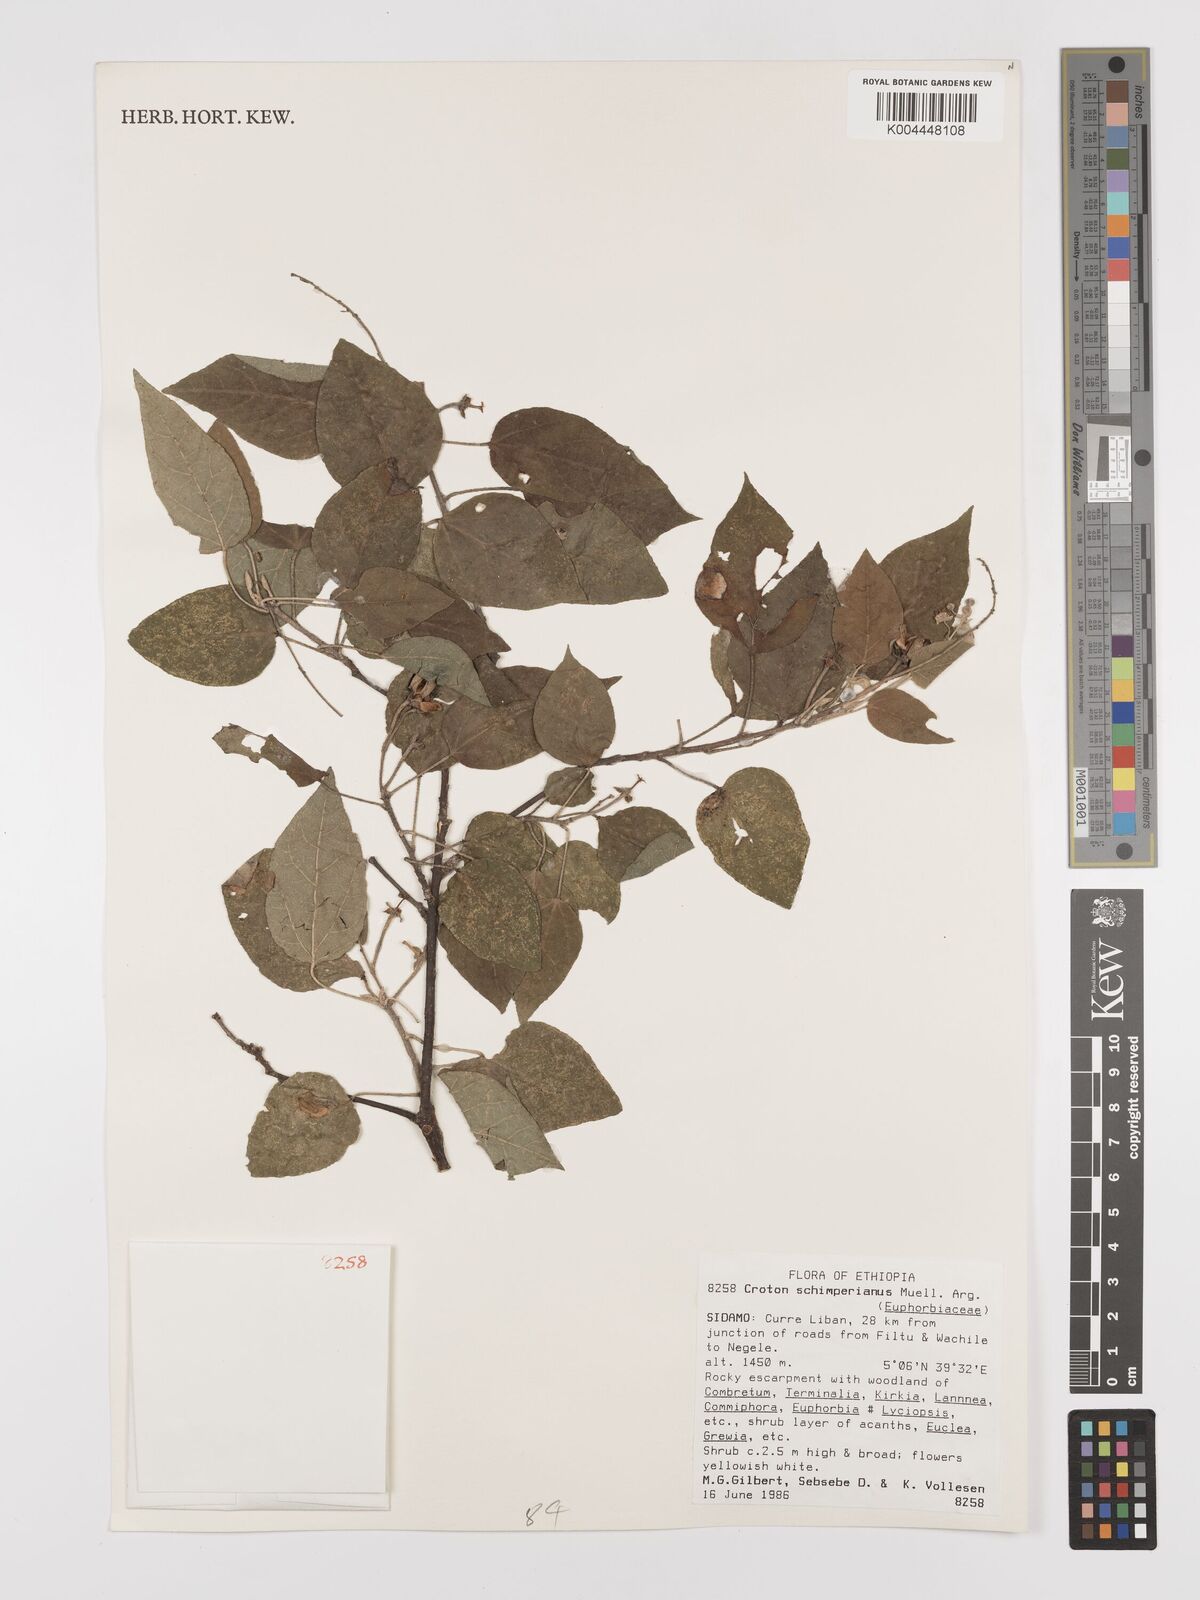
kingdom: Plantae
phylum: Tracheophyta
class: Magnoliopsida
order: Malpighiales
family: Euphorbiaceae
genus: Croton
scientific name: Croton schimperianus
